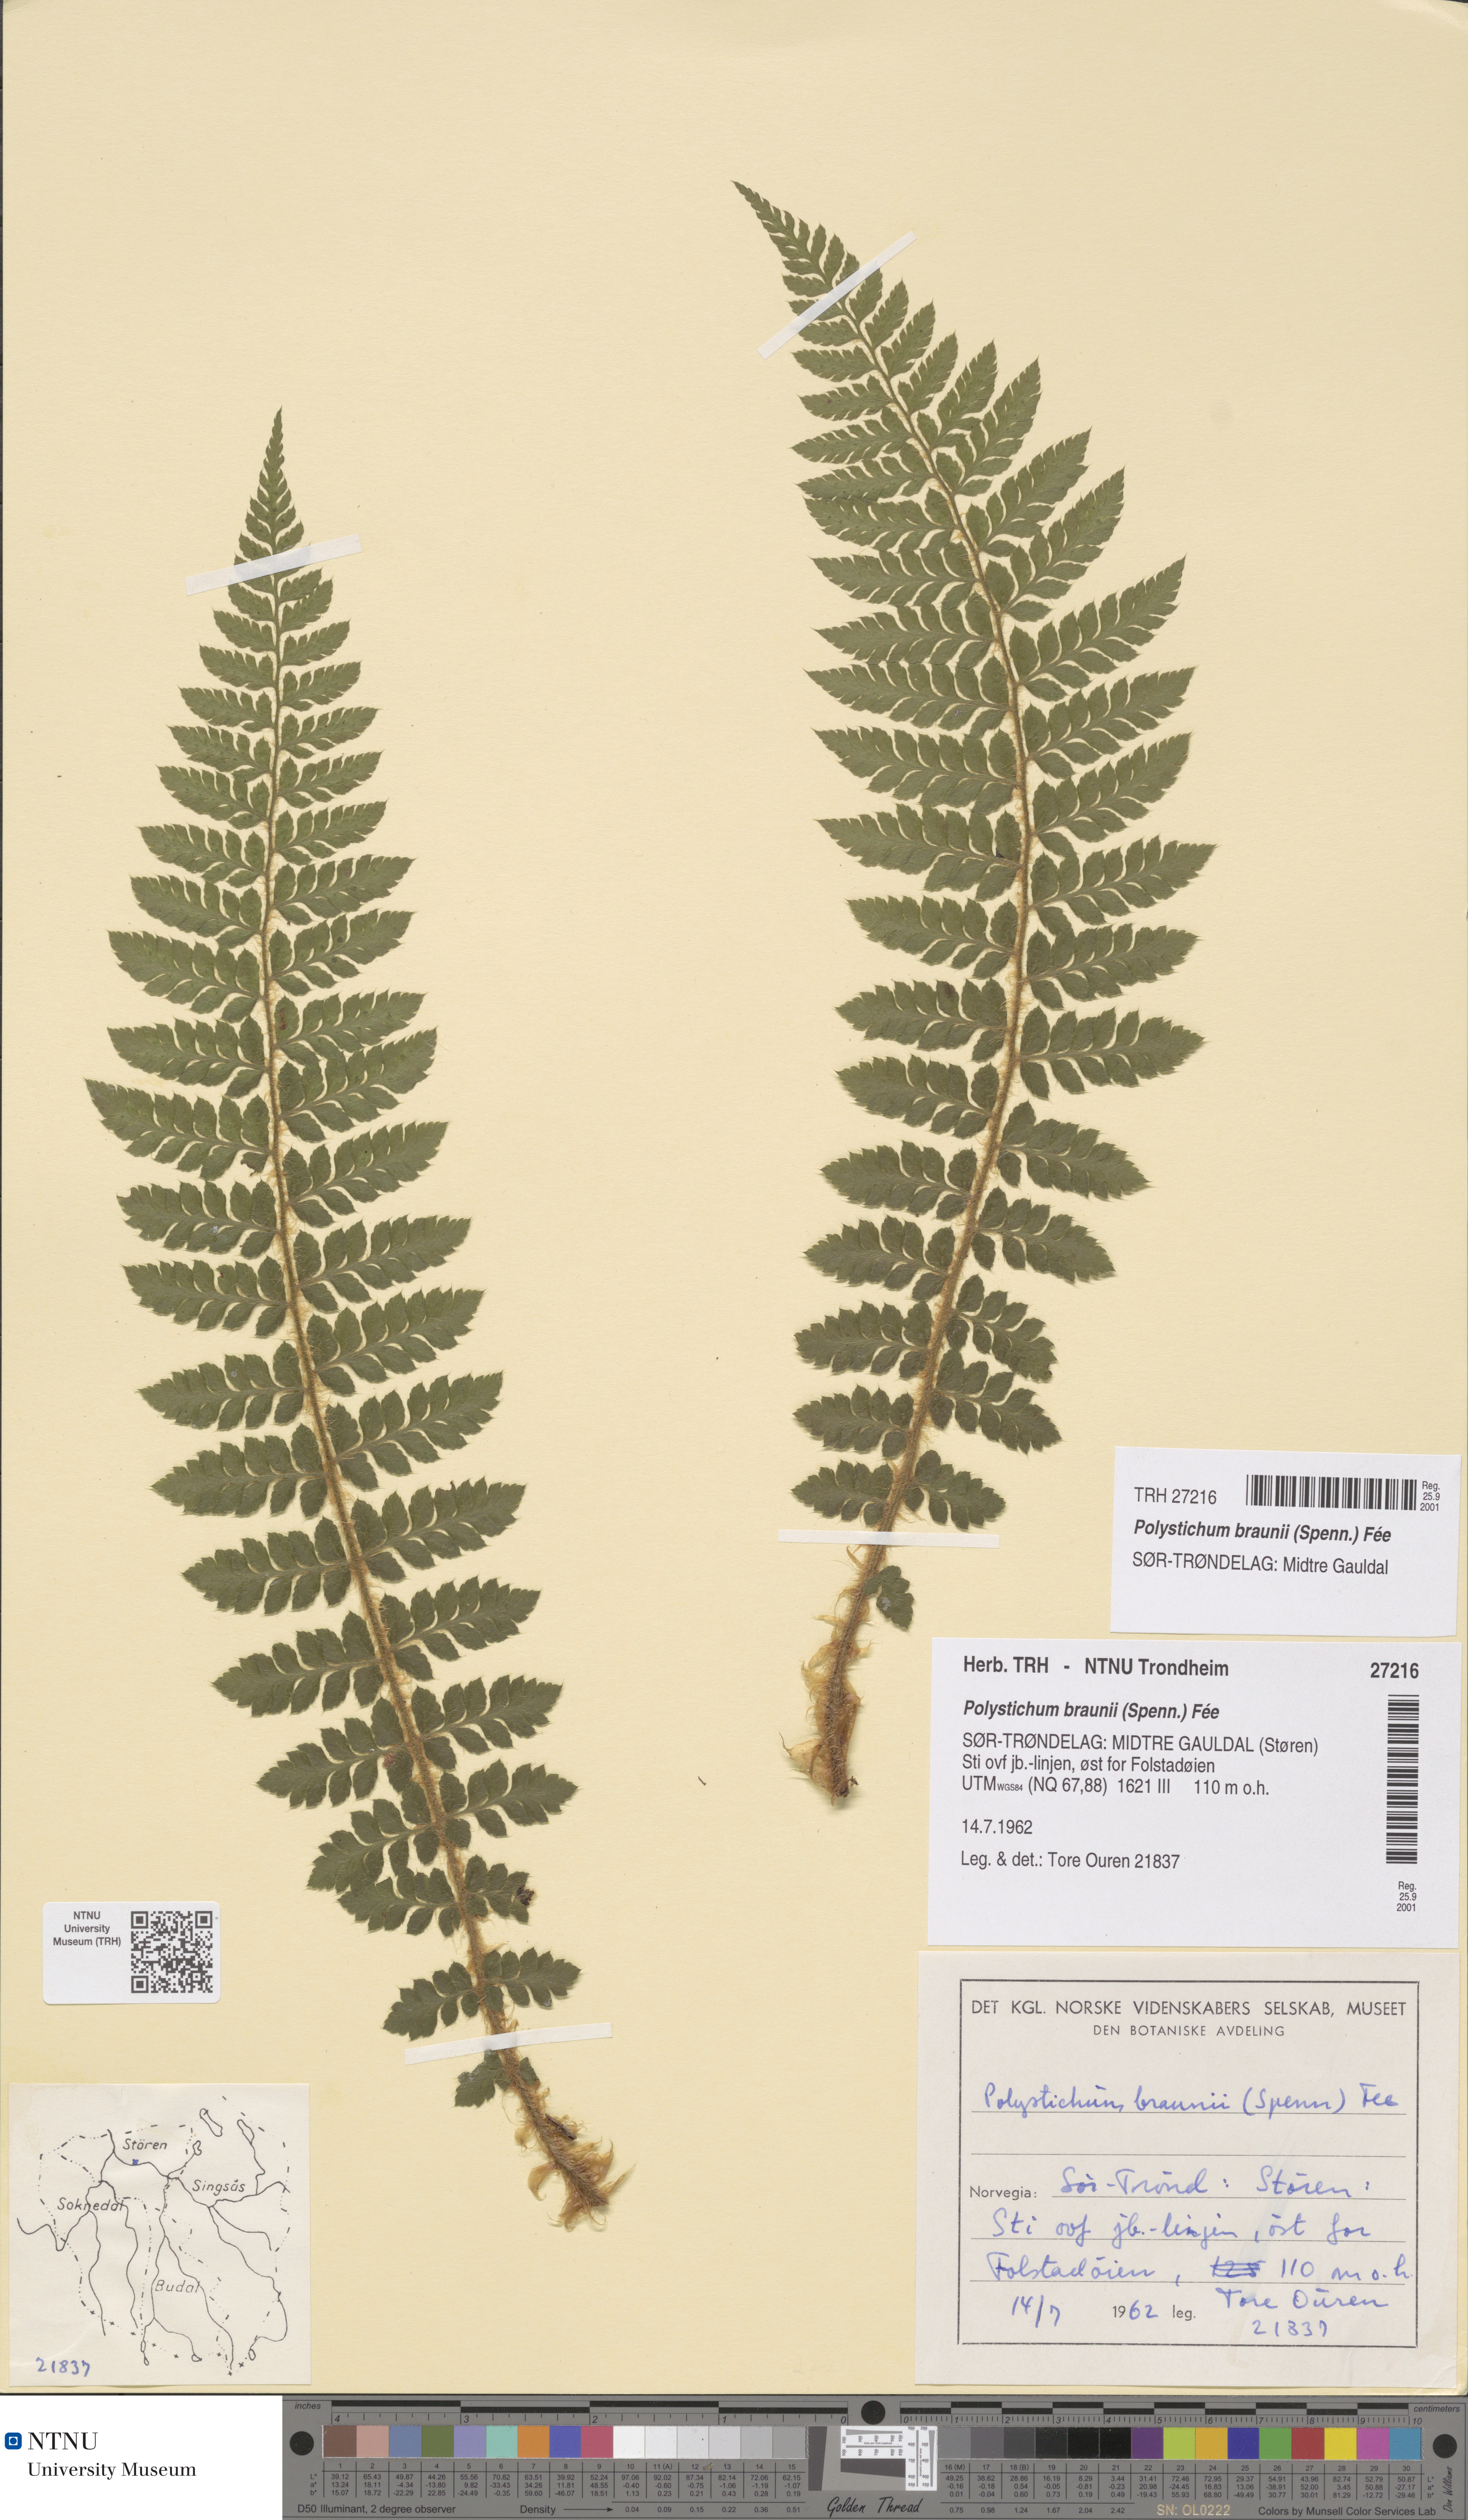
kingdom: Plantae
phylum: Tracheophyta
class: Polypodiopsida
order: Polypodiales
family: Dryopteridaceae
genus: Polystichum
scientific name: Polystichum braunii
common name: Braun's holly fern
